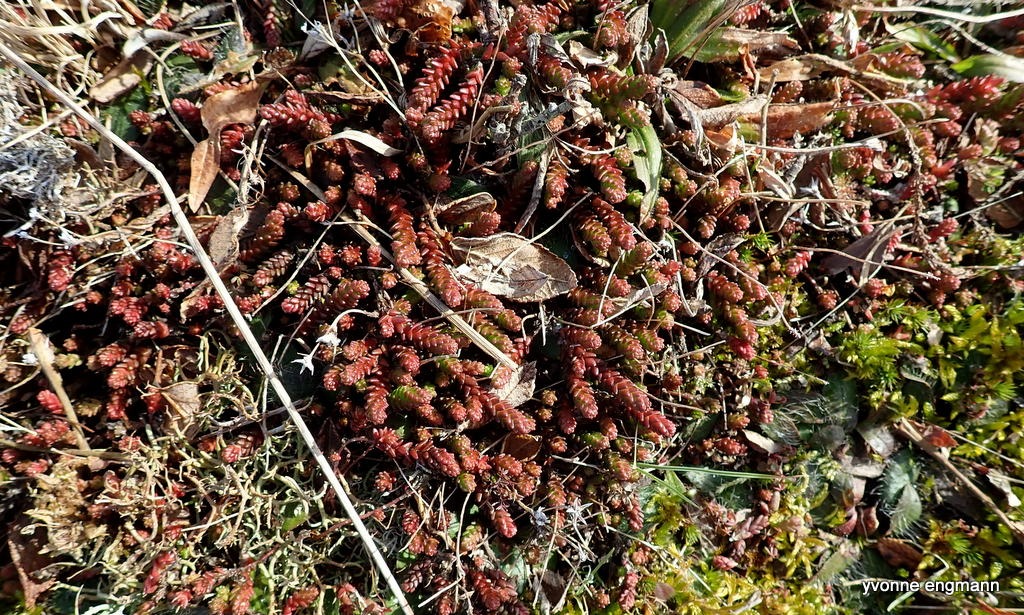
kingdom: Plantae
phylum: Tracheophyta
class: Magnoliopsida
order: Saxifragales
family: Crassulaceae
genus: Sedum
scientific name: Sedum acre
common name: Bidende stenurt
